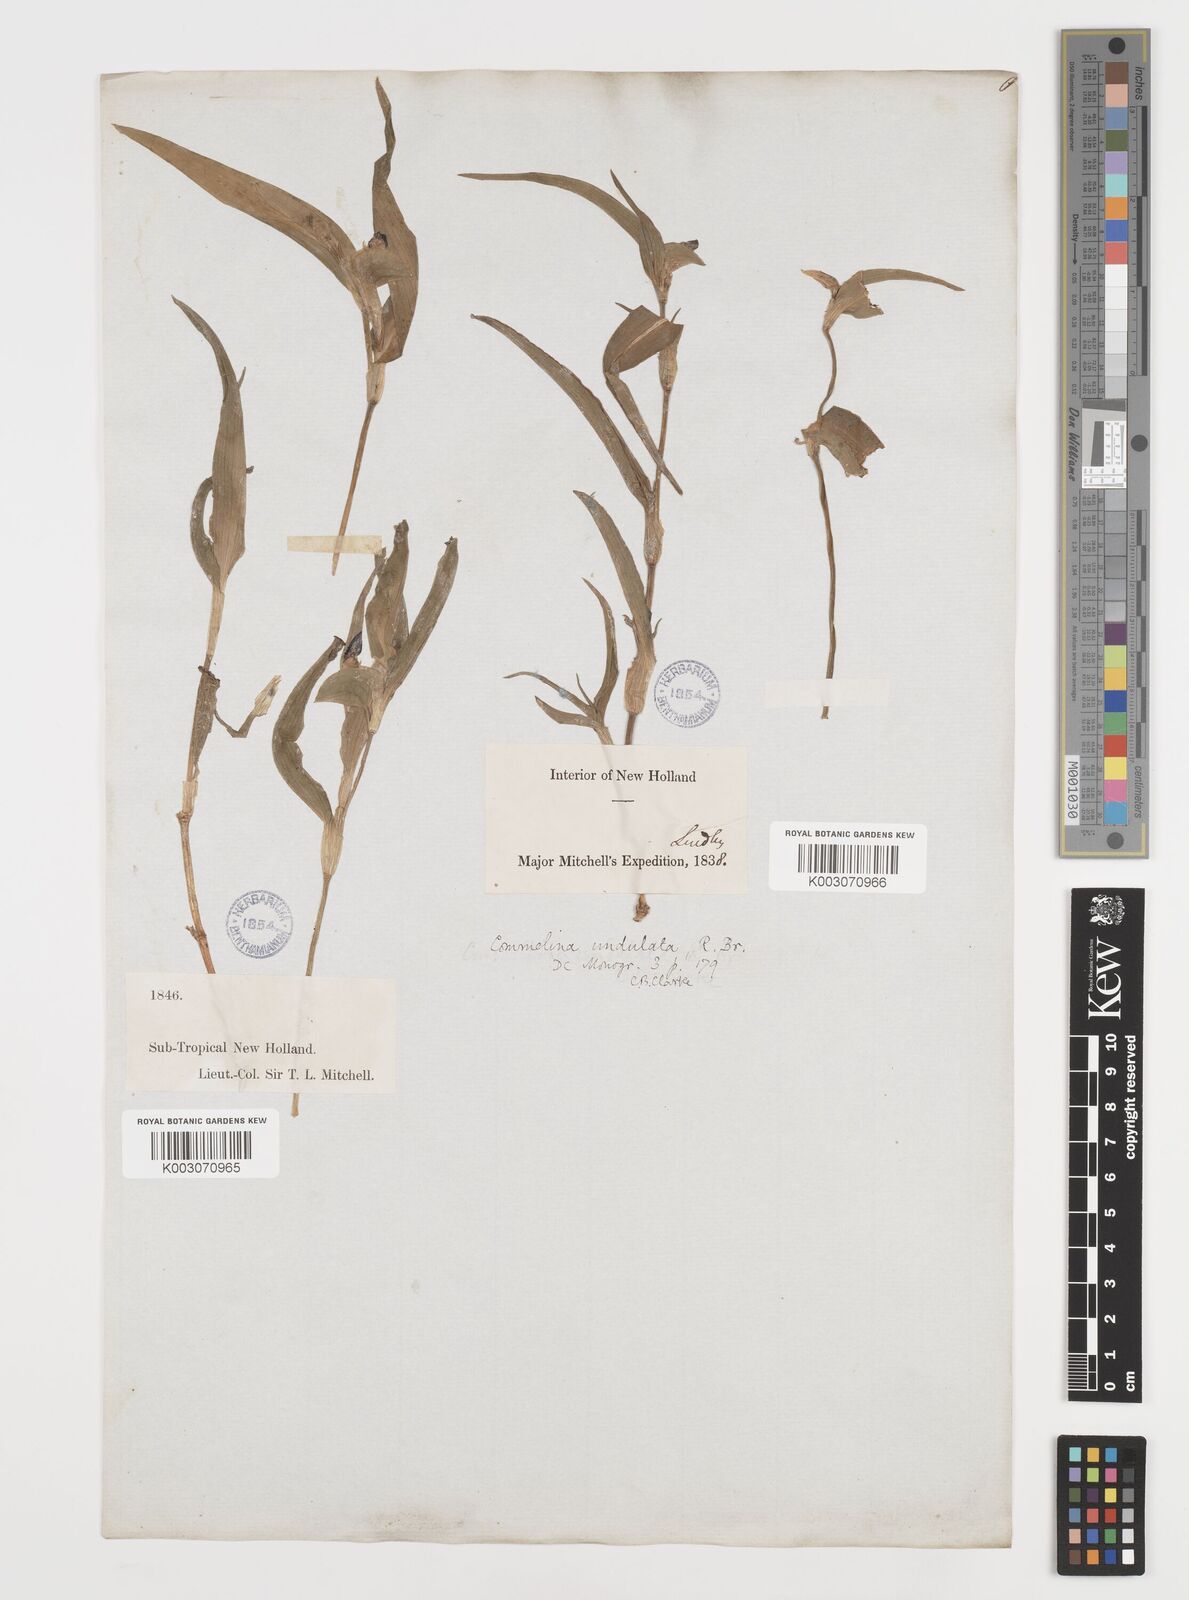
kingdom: Plantae
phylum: Tracheophyta
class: Liliopsida
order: Commelinales
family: Commelinaceae
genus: Commelina
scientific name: Commelina undulata
